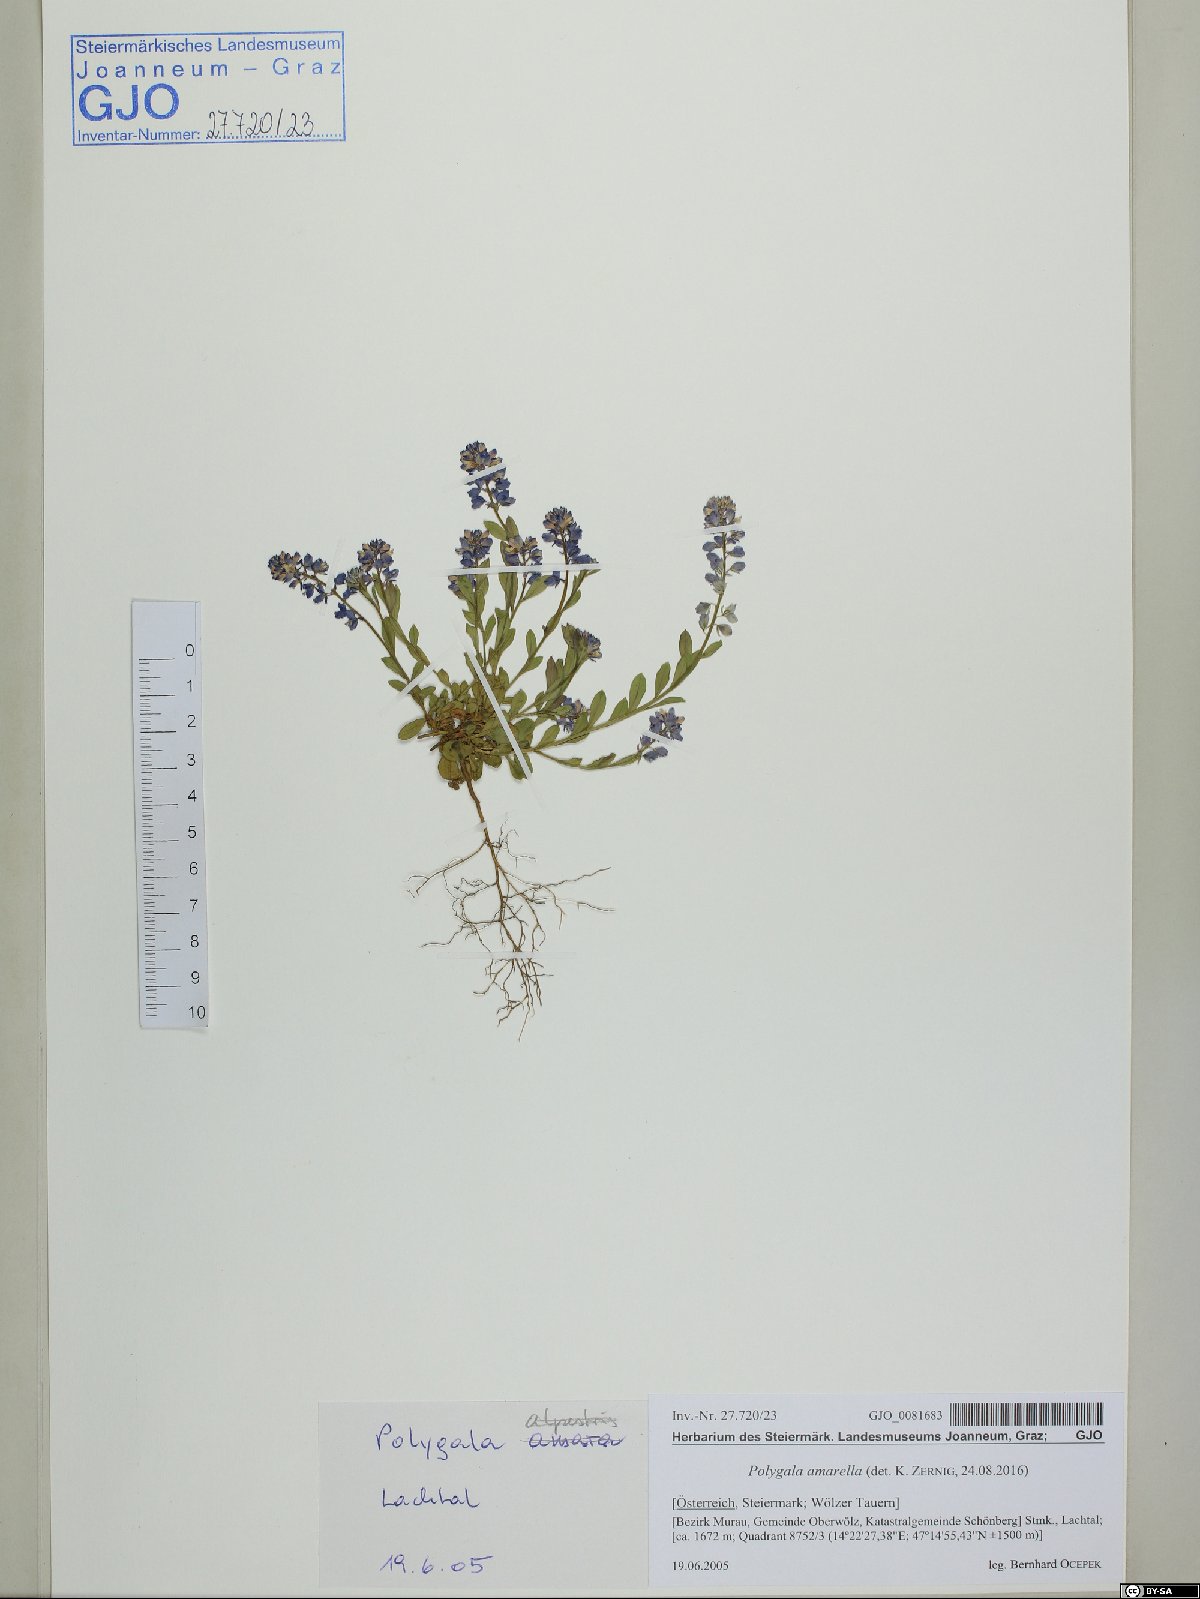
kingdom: Plantae
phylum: Tracheophyta
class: Magnoliopsida
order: Fabales
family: Polygalaceae
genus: Polygala
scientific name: Polygala amarella
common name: Dwarf milkwort
